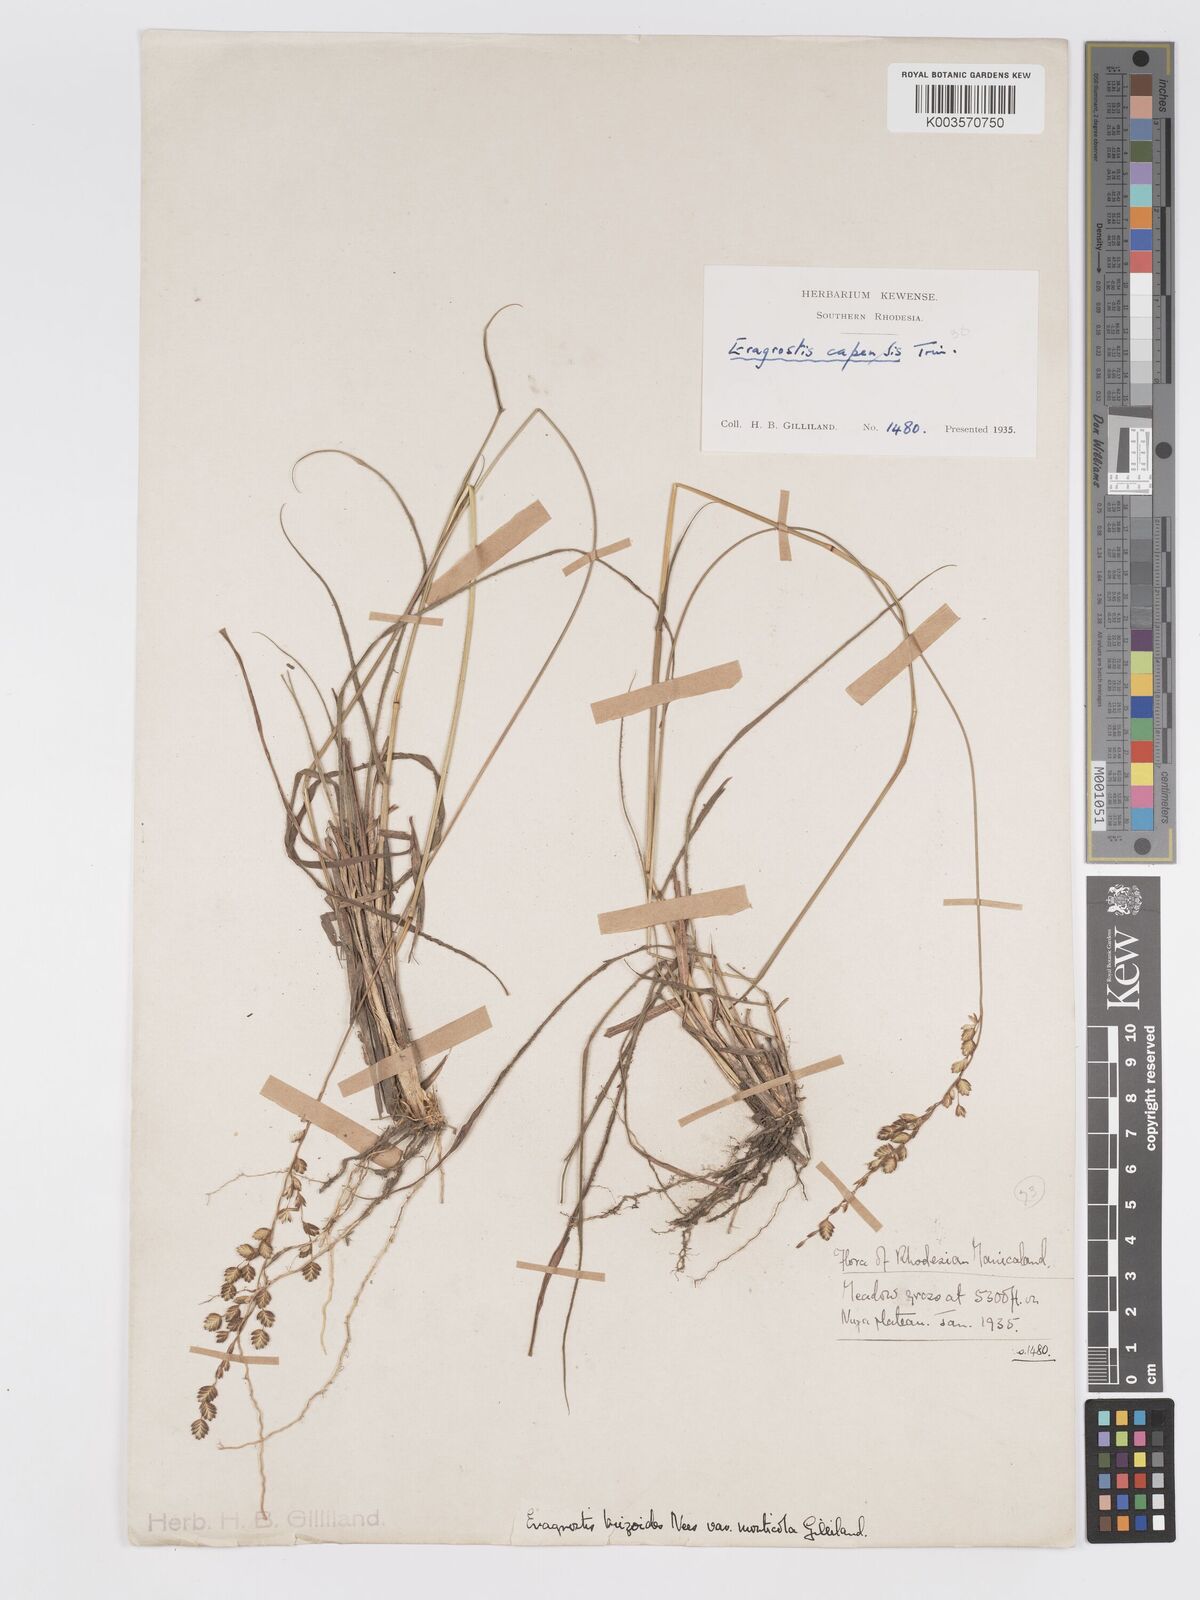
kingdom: Plantae
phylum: Tracheophyta
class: Liliopsida
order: Poales
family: Poaceae
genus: Eragrostis
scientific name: Eragrostis capensis
